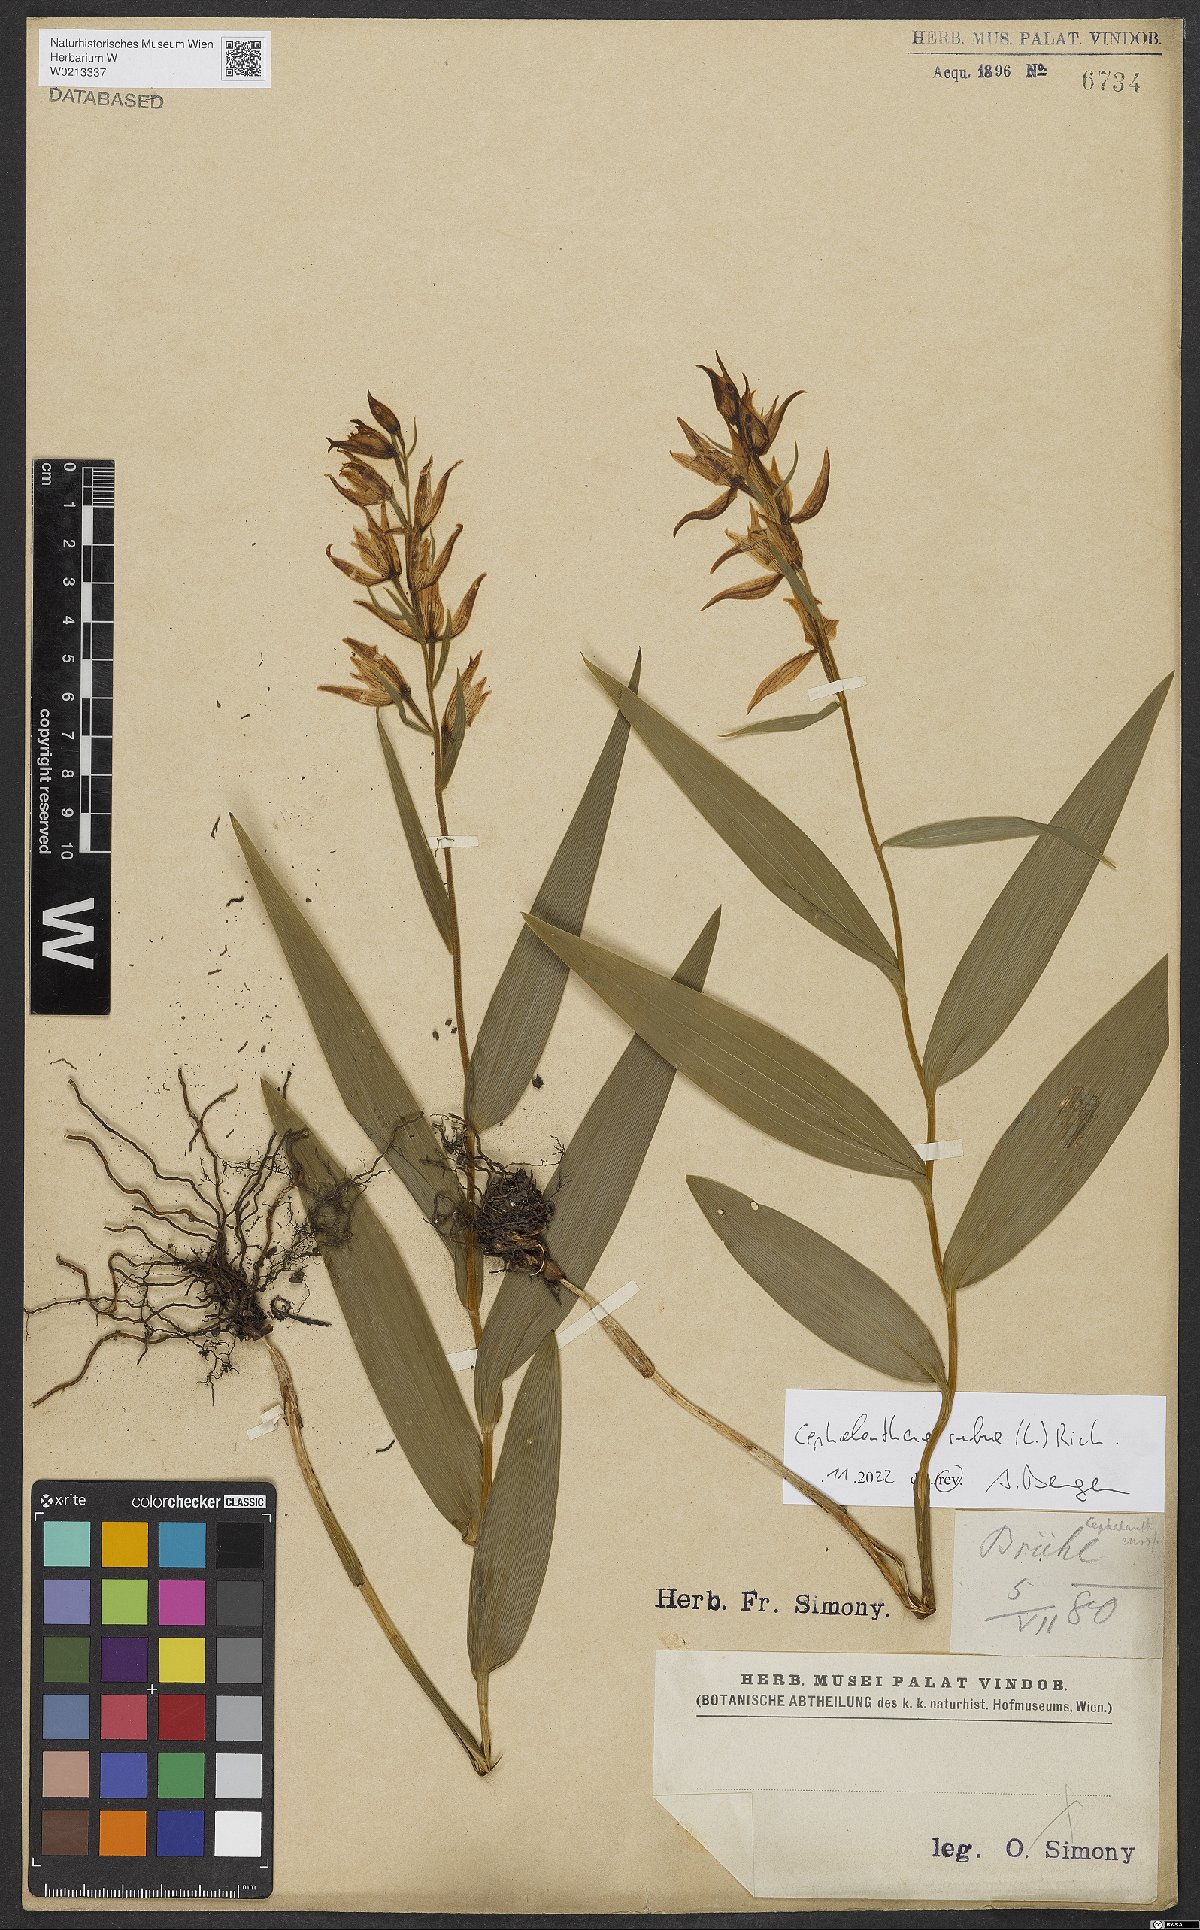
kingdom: Plantae
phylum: Tracheophyta
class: Liliopsida
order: Asparagales
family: Orchidaceae
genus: Cephalanthera
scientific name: Cephalanthera rubra
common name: Red helleborine
